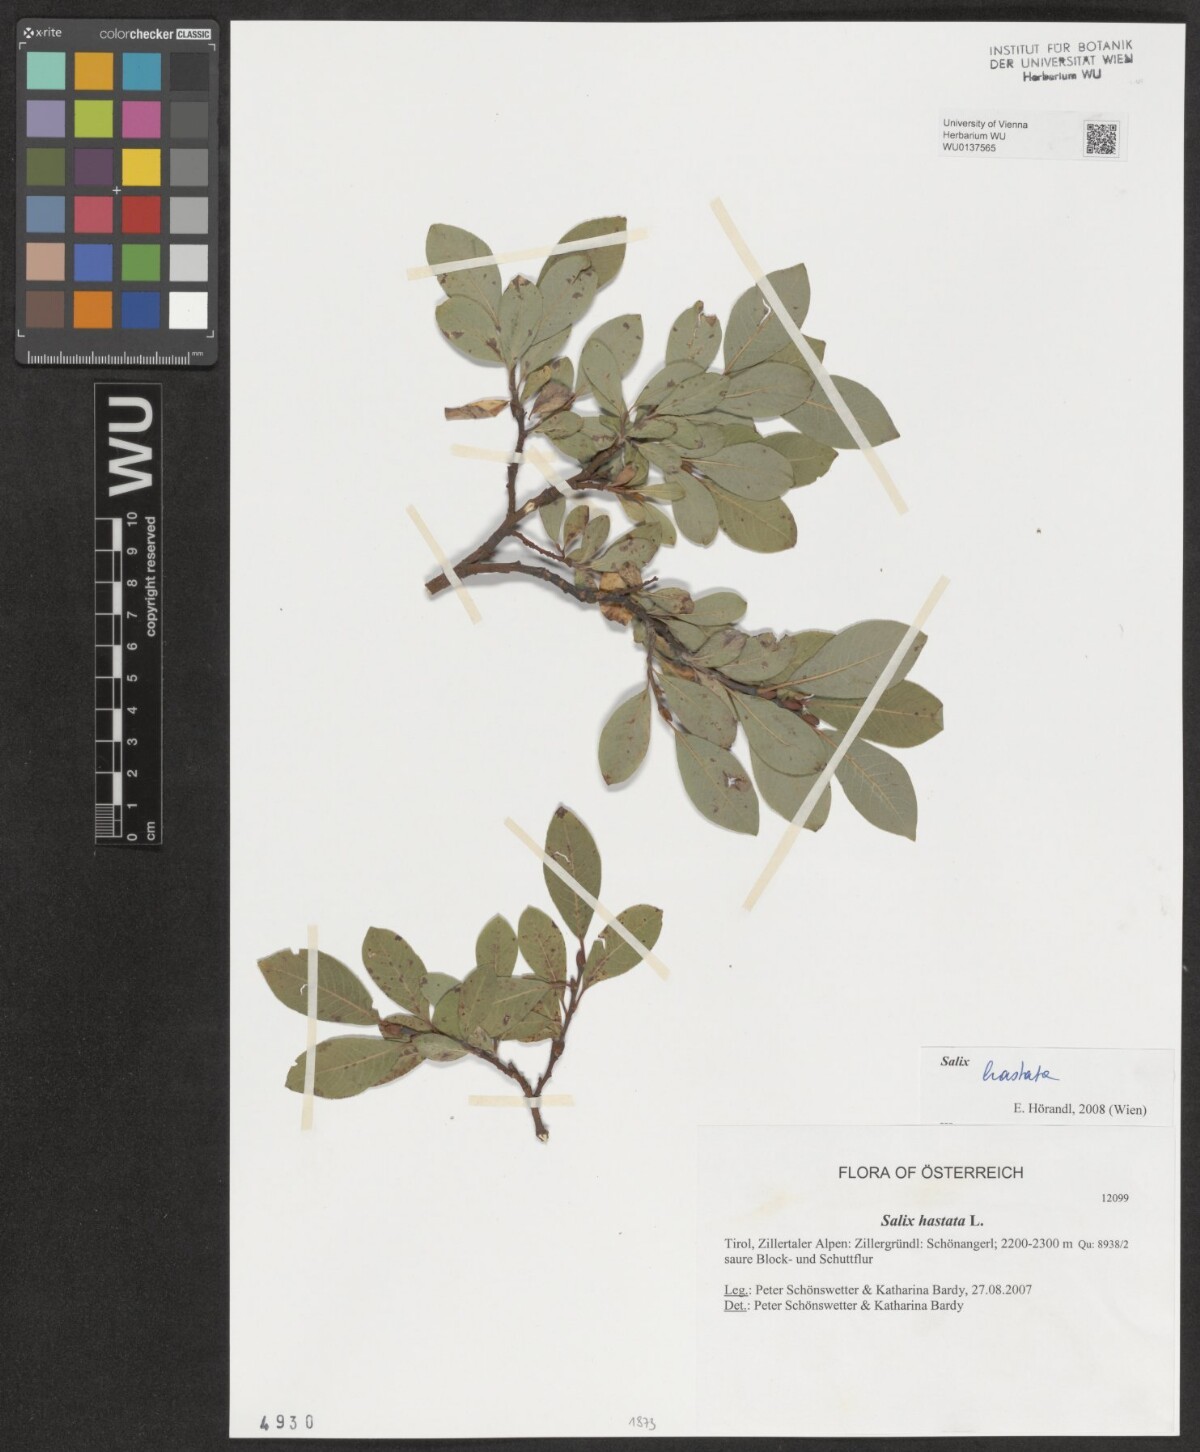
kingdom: Plantae
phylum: Tracheophyta
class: Magnoliopsida
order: Malpighiales
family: Salicaceae
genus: Salix
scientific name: Salix hastata
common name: Halberd willow
